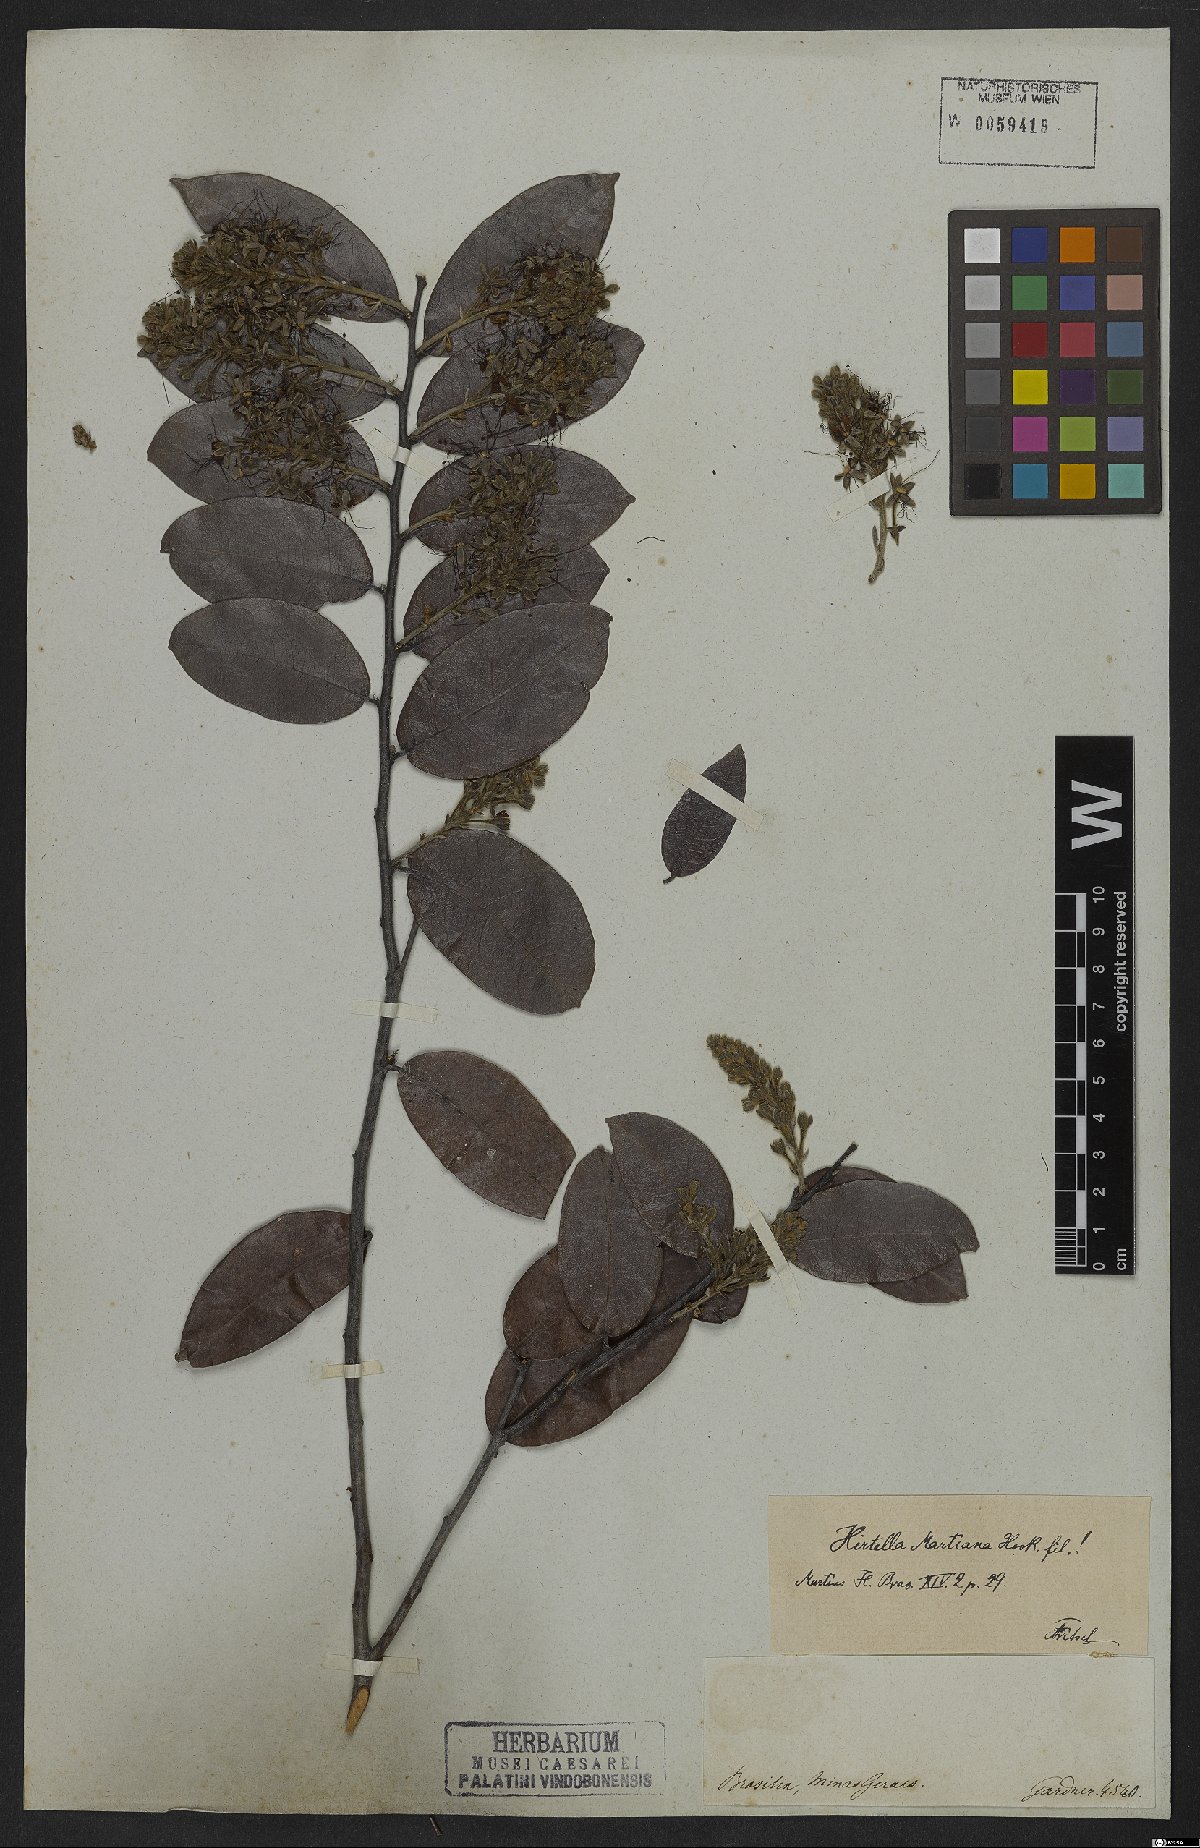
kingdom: Plantae
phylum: Tracheophyta
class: Magnoliopsida
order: Malpighiales
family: Chrysobalanaceae
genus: Hirtella
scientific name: Hirtella martiana
